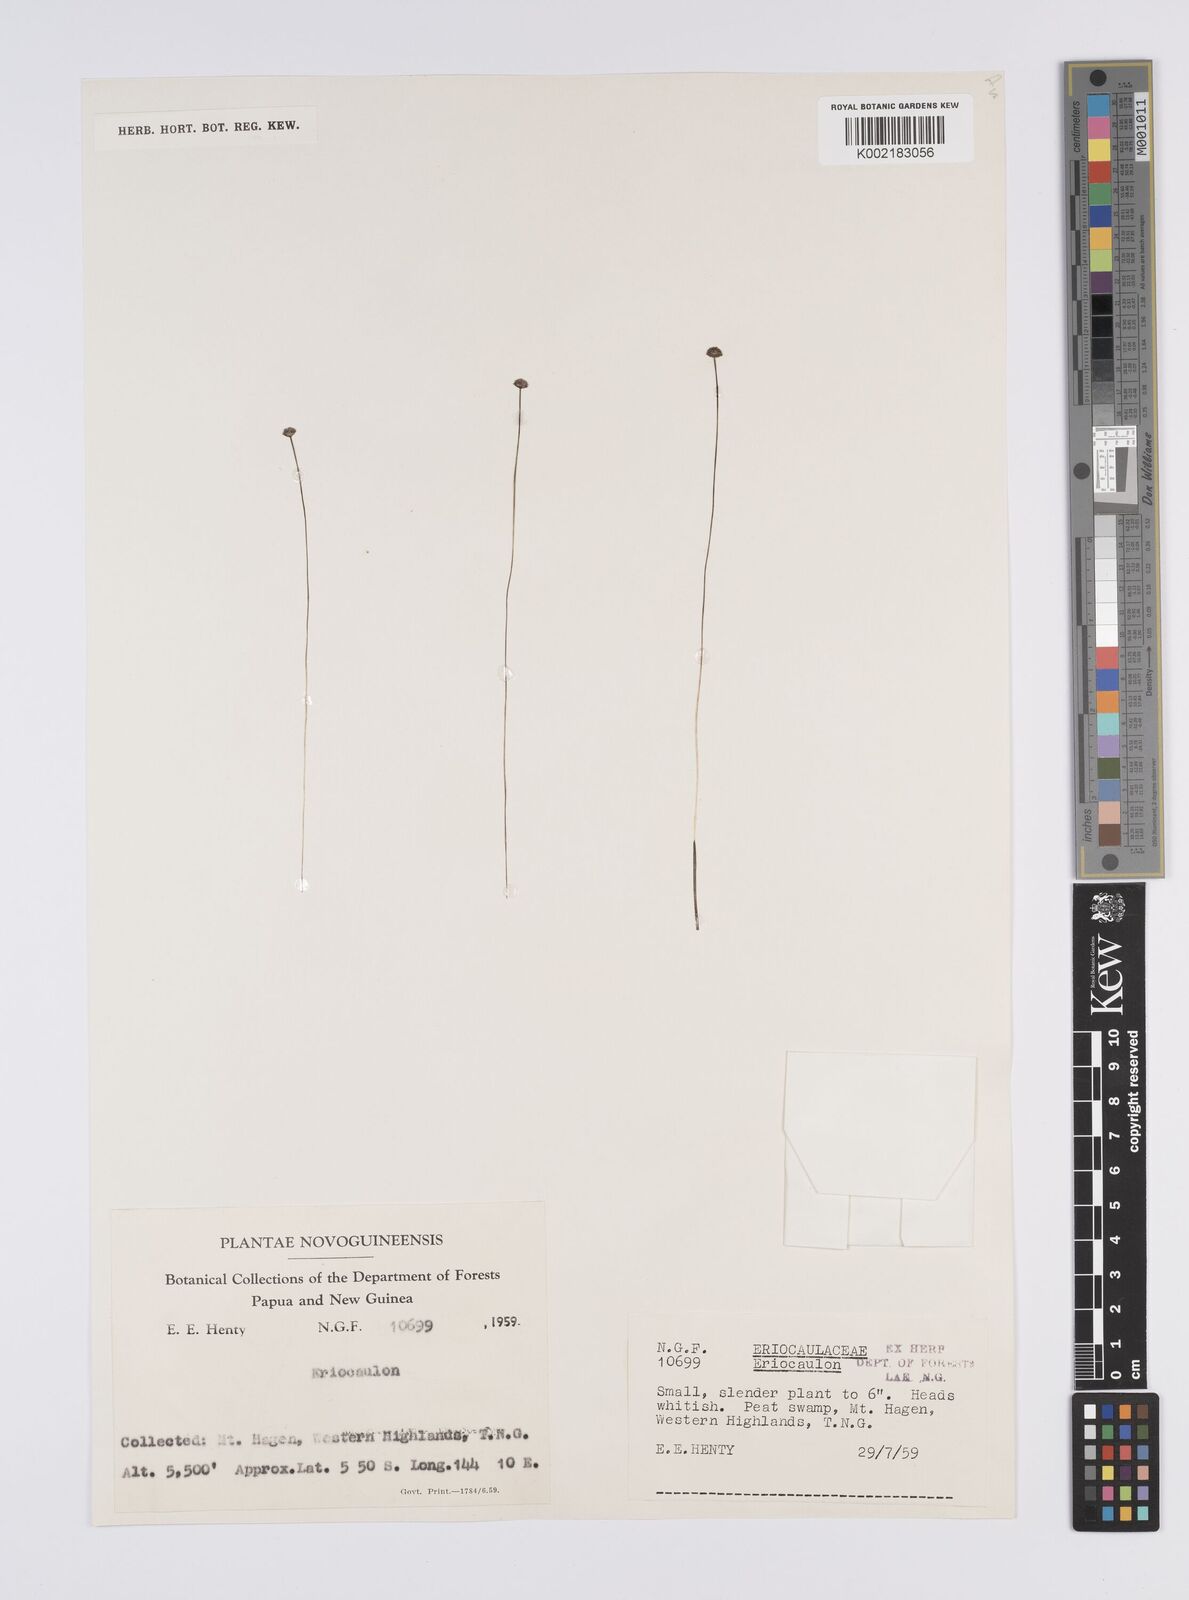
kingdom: Plantae
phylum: Tracheophyta
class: Liliopsida
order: Poales
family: Eriocaulaceae
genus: Eriocaulon
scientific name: Eriocaulon
